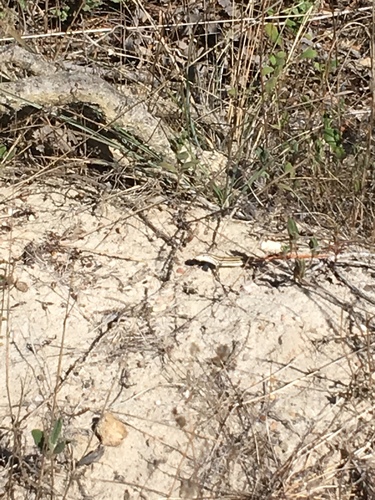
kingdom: Animalia
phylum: Chordata
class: Squamata
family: Lacertidae
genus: Acanthodactylus
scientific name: Acanthodactylus erythrurus
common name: Spiny-footed lizard
